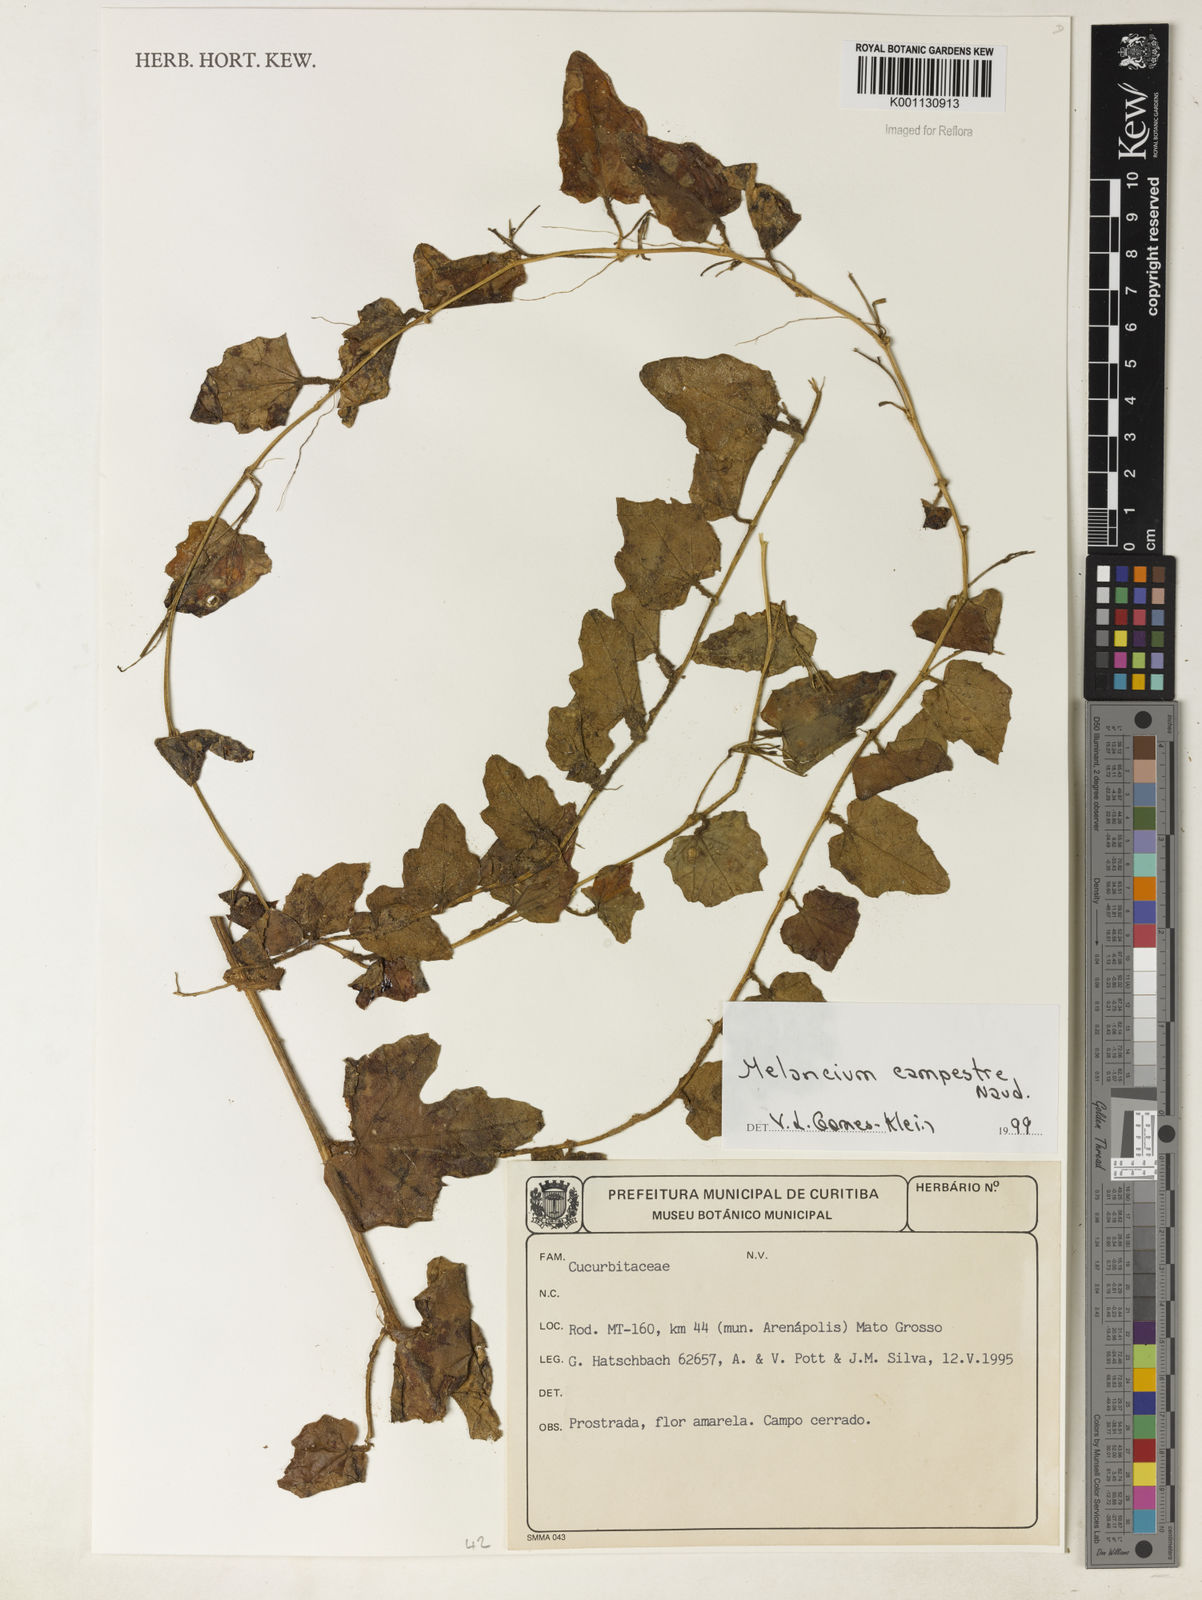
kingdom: Plantae
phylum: Tracheophyta
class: Magnoliopsida
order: Cucurbitales
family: Cucurbitaceae
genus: Melothria
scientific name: Melothria campestris
